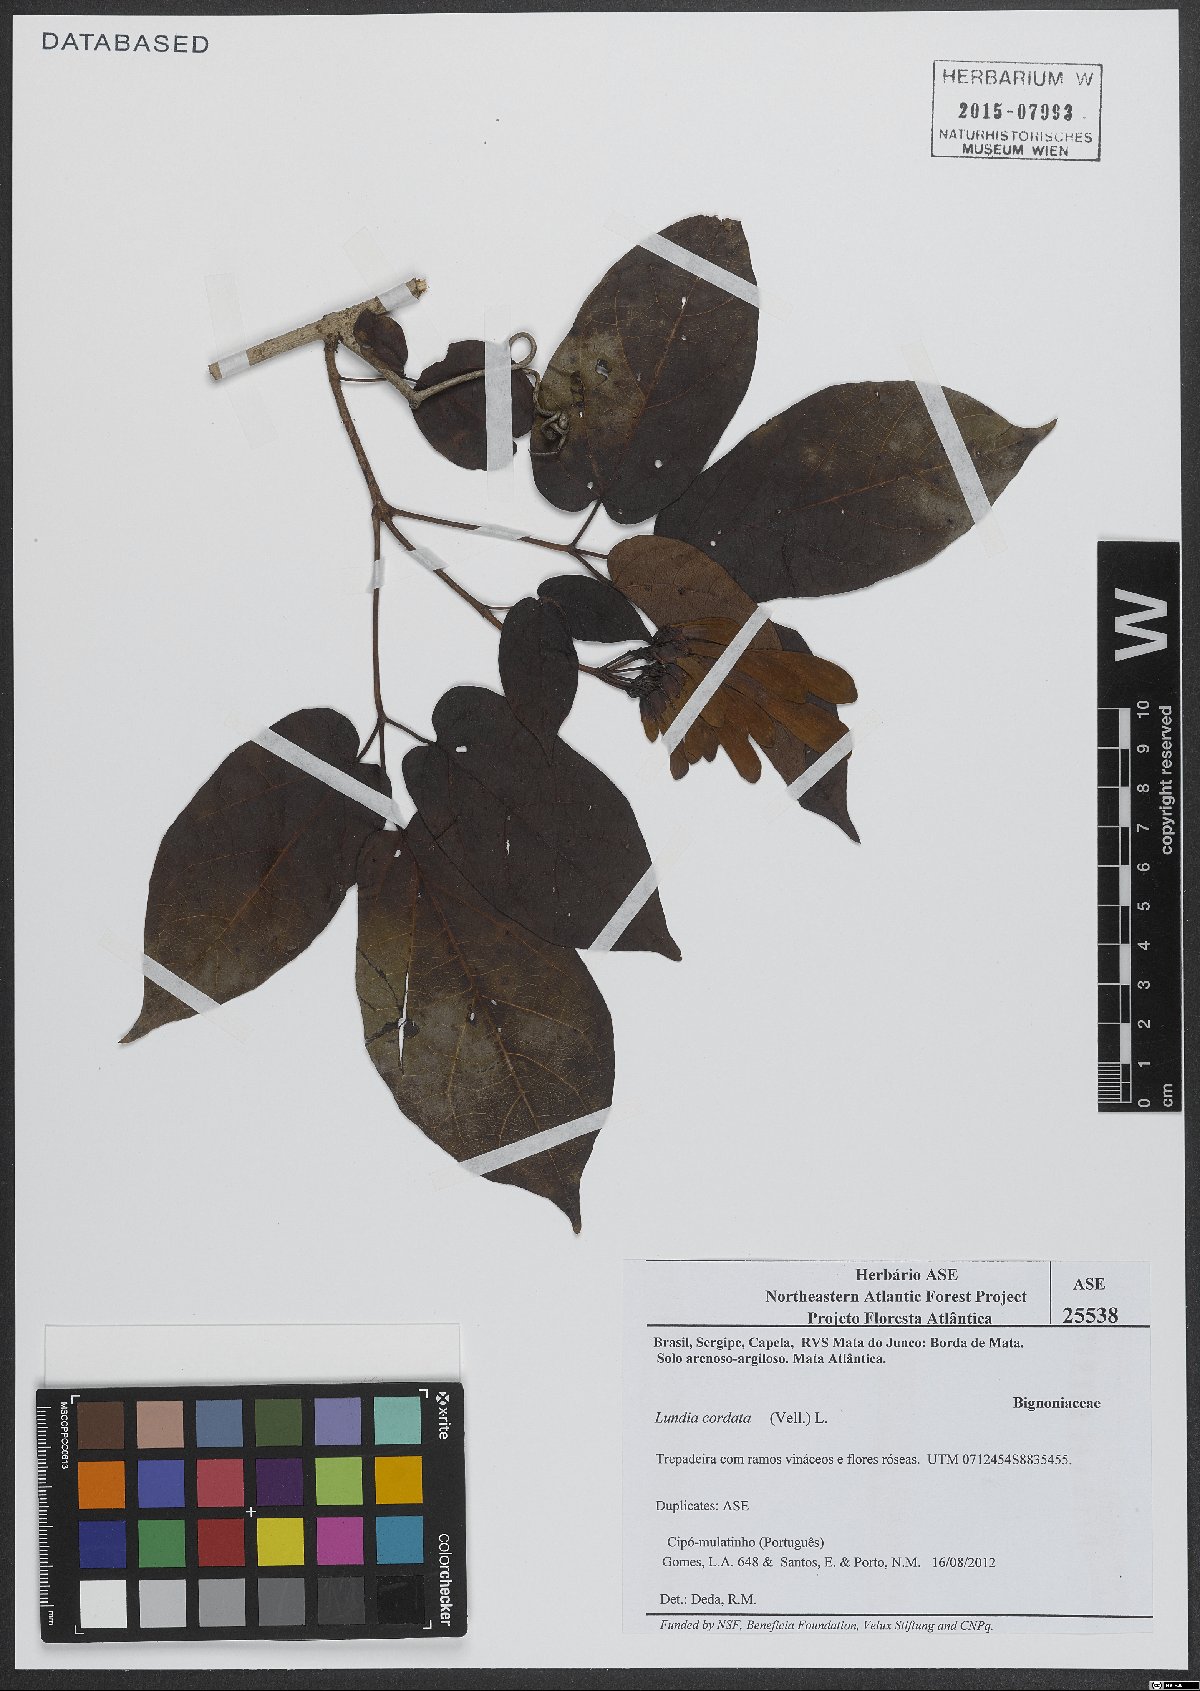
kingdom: Plantae
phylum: Tracheophyta
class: Magnoliopsida
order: Lamiales
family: Bignoniaceae
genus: Lundia
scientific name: Lundia corymbifera
